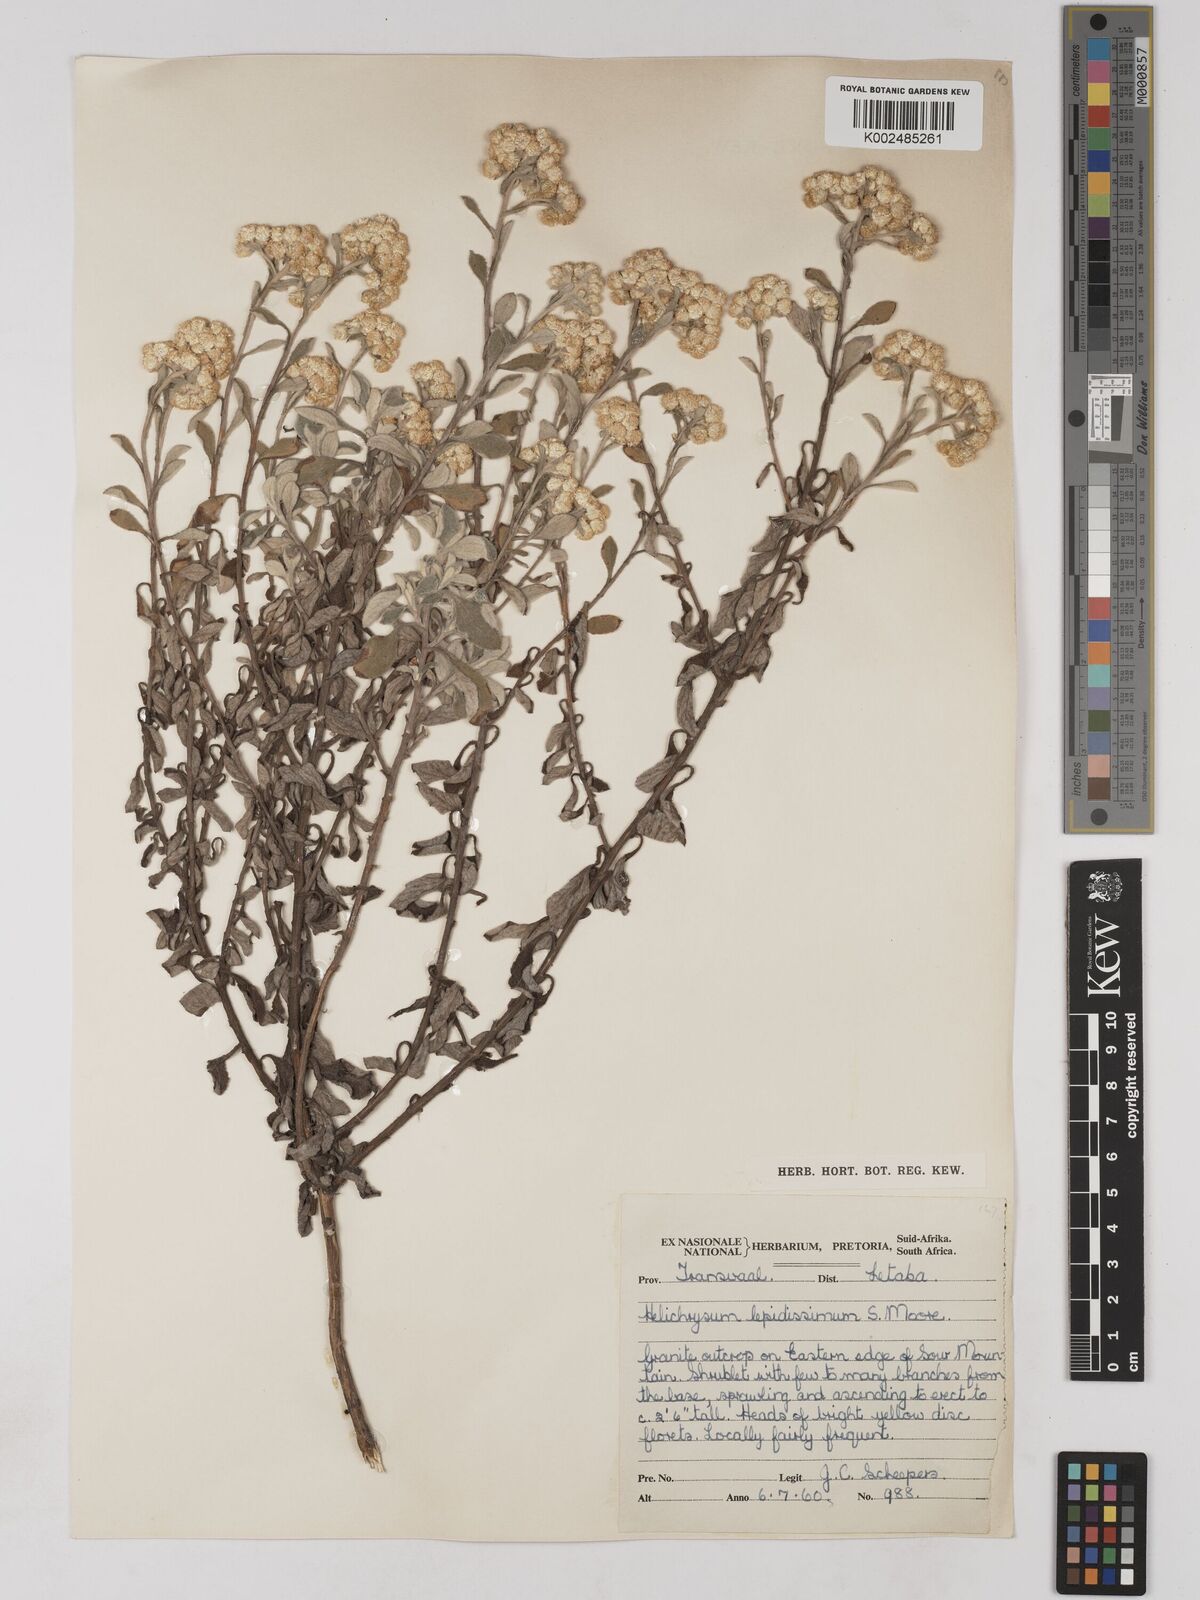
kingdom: Plantae
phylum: Tracheophyta
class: Magnoliopsida
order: Asterales
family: Asteraceae
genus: Helichrysum
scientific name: Helichrysum lepidissimum
